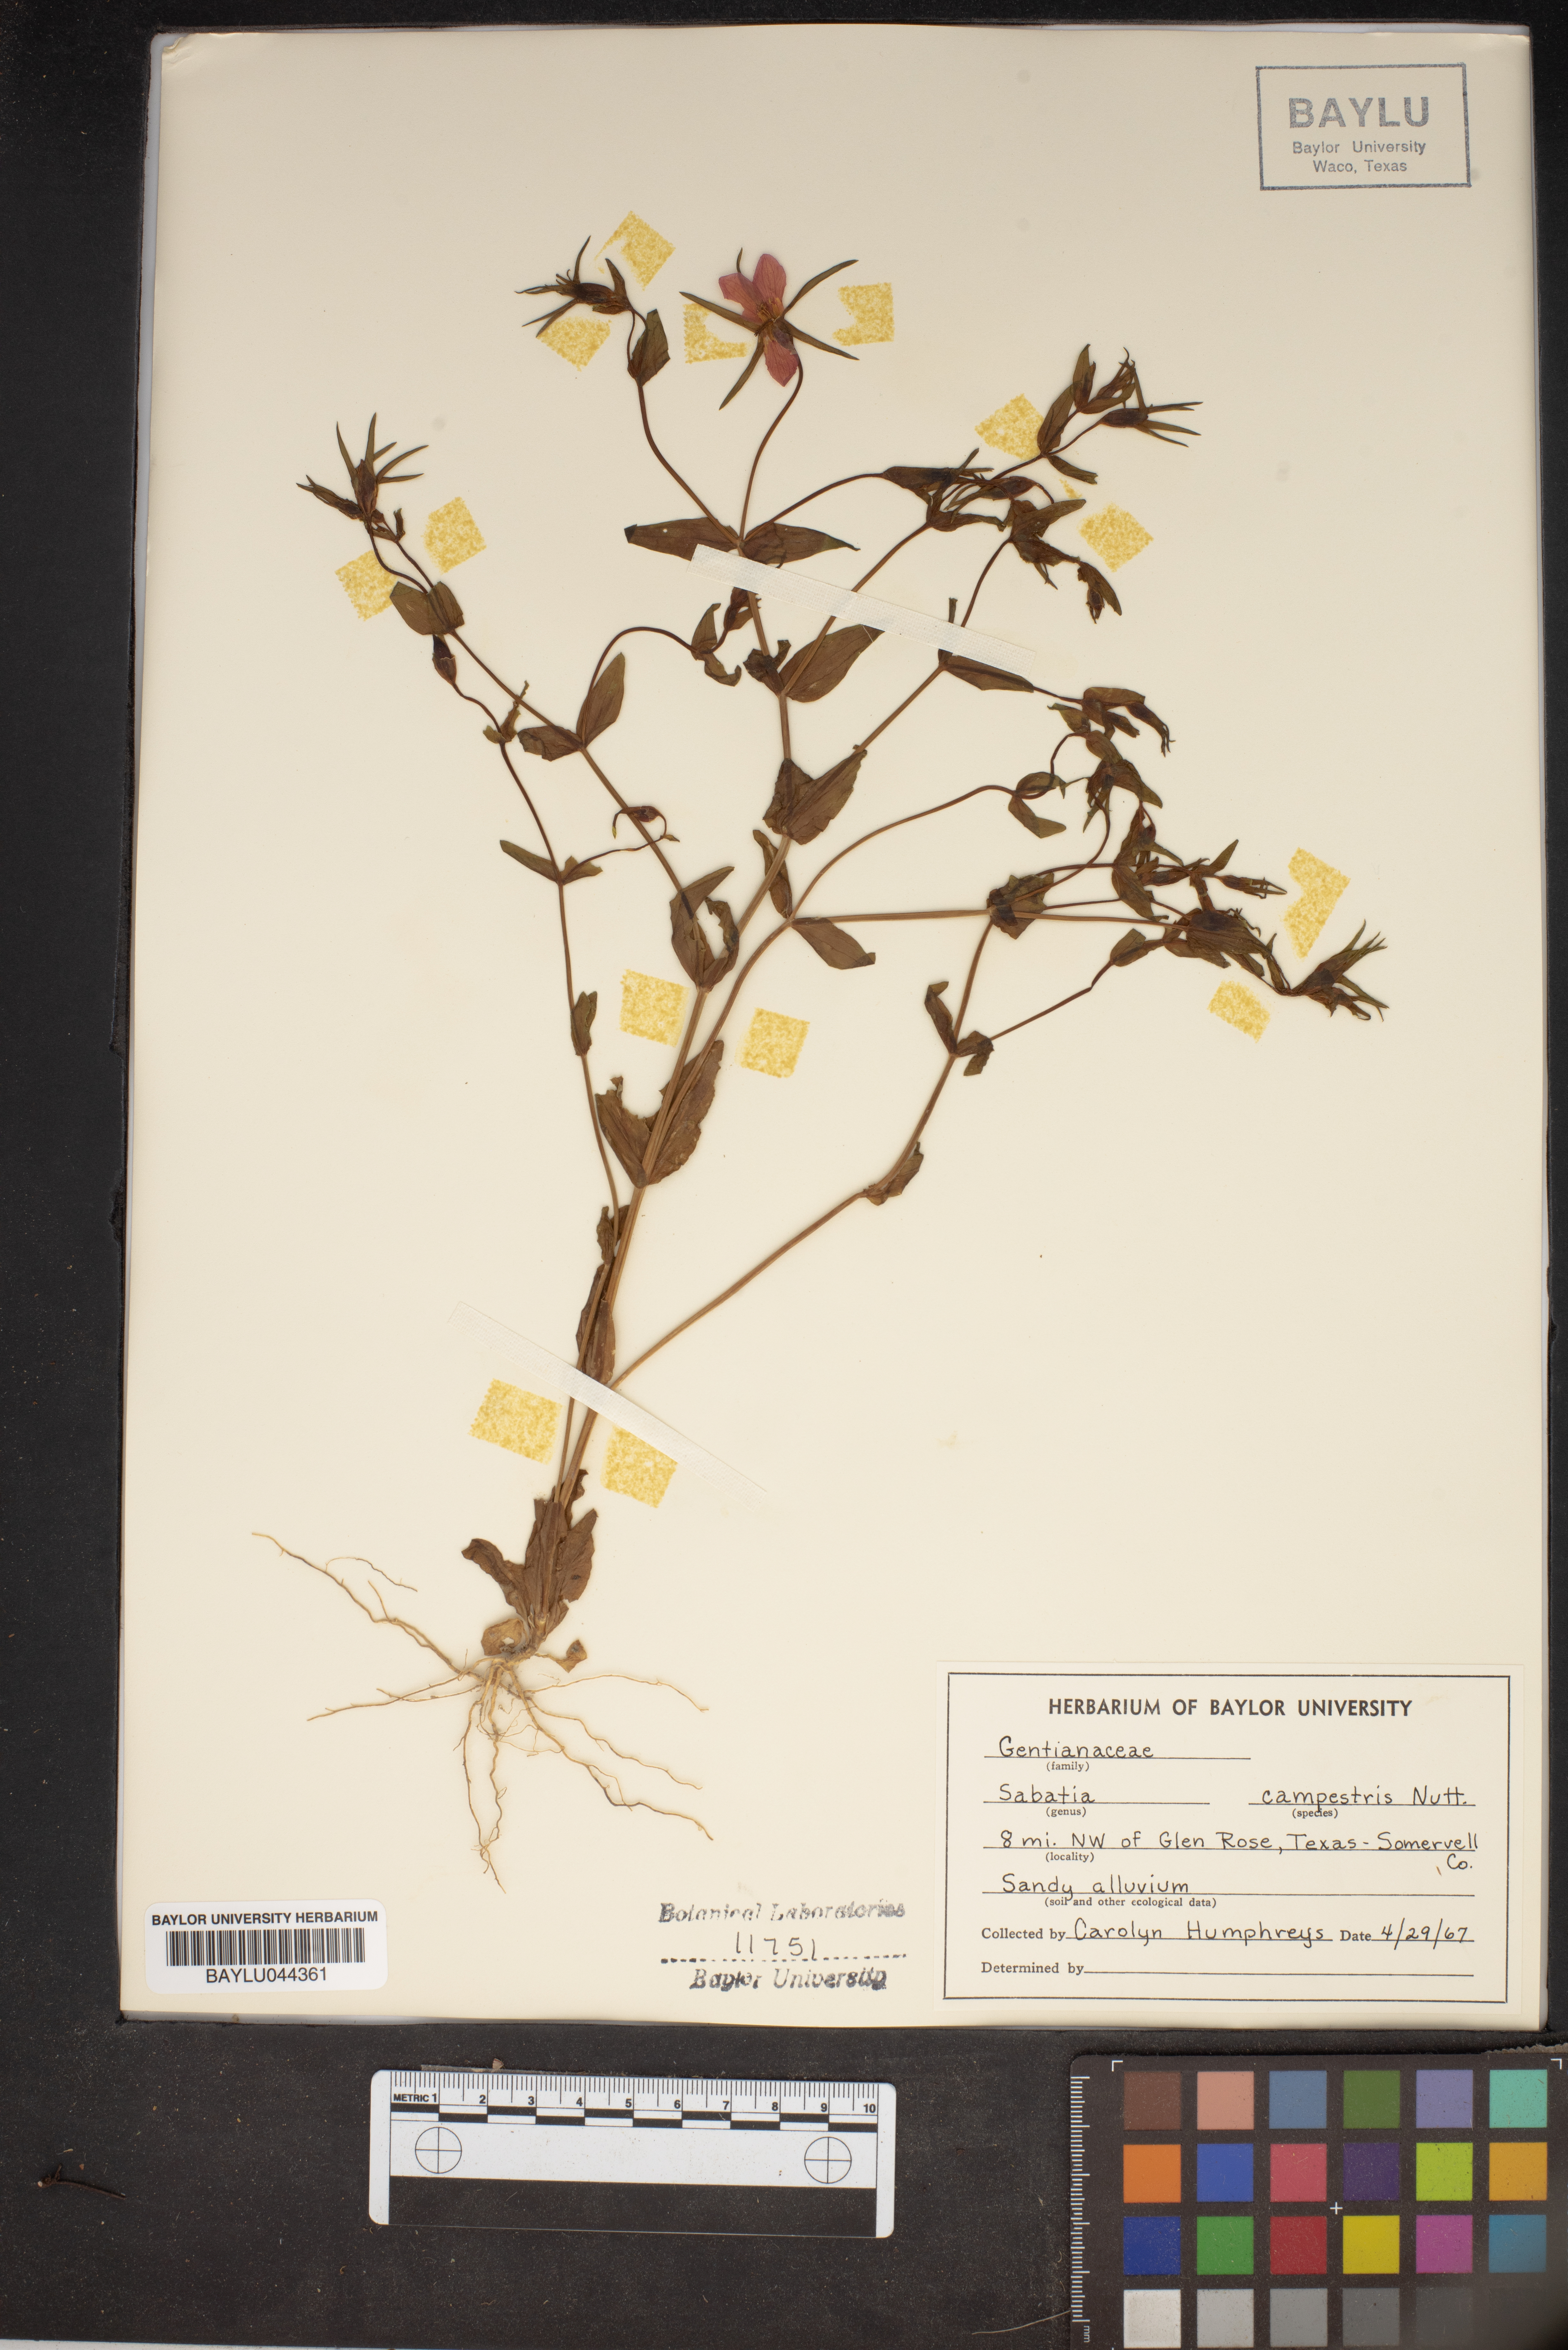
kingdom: Plantae
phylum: Tracheophyta
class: Magnoliopsida
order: Gentianales
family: Gentianaceae
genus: Sabatia
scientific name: Sabatia campestris
